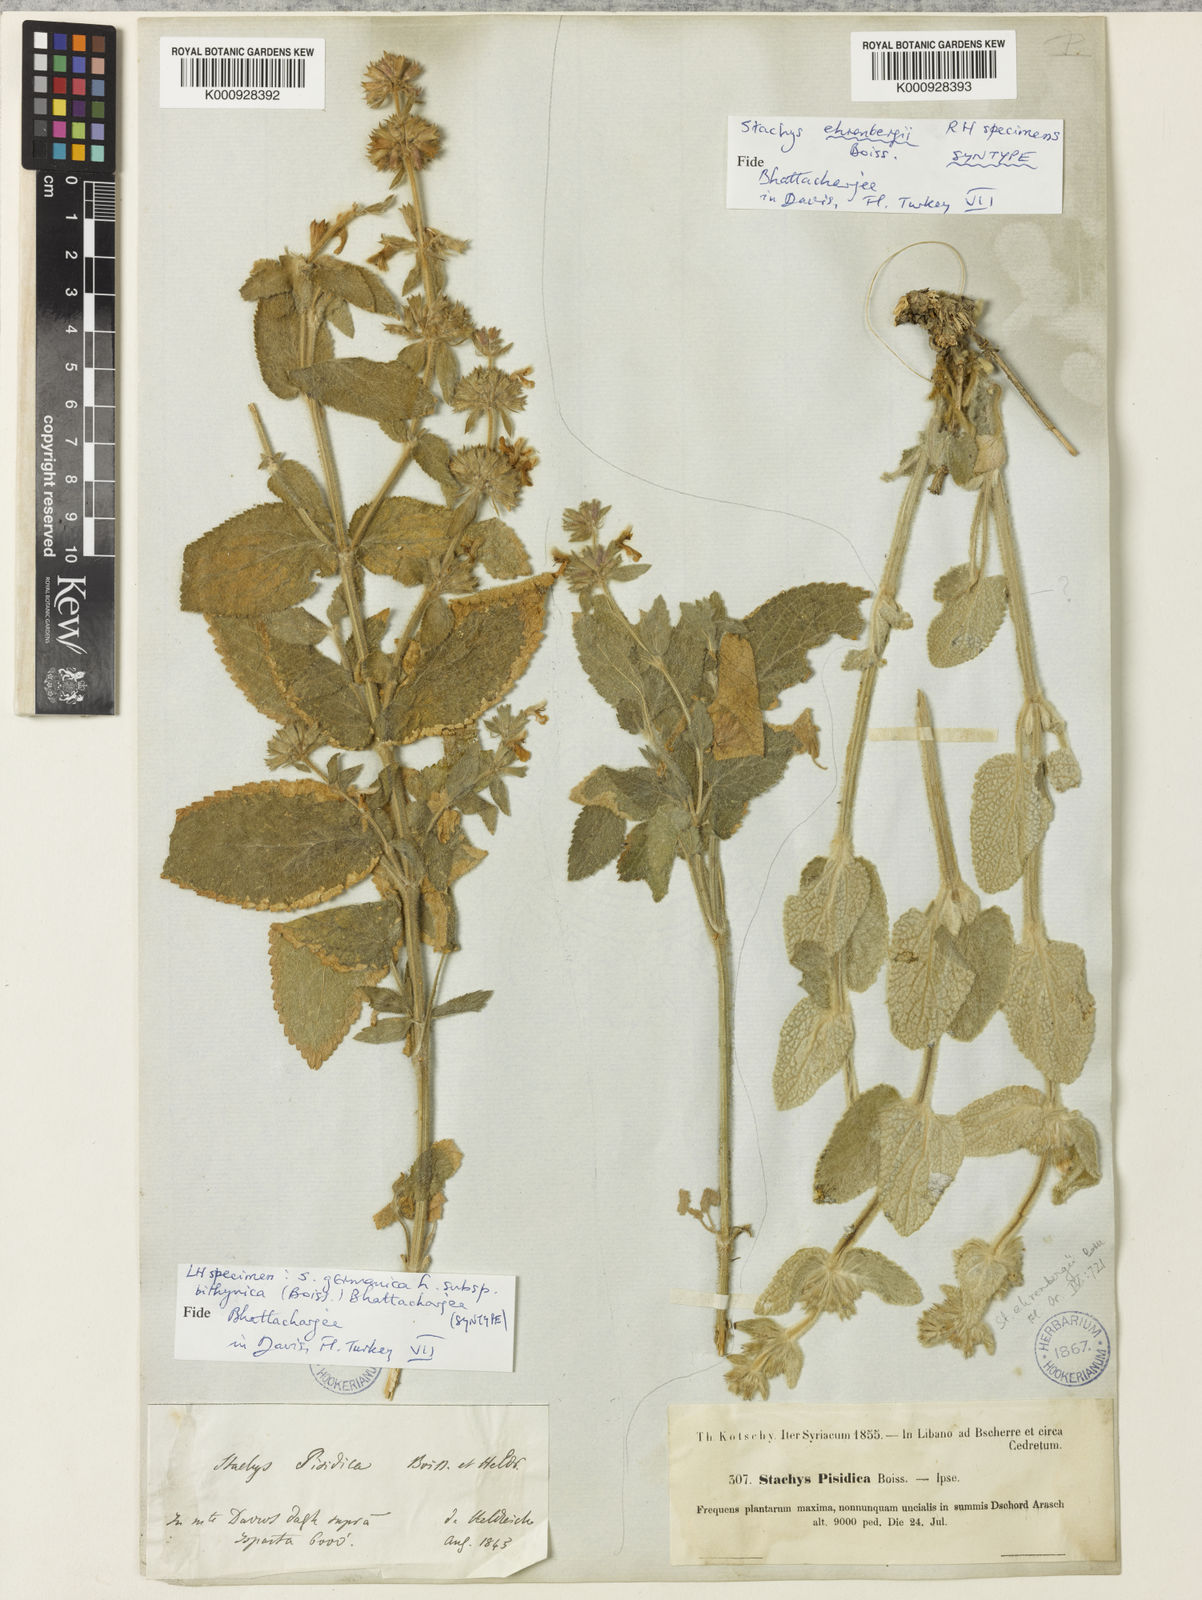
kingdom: Plantae
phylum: Tracheophyta
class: Magnoliopsida
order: Lamiales
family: Lamiaceae
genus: Stachys
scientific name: Stachys ehrenbergii
